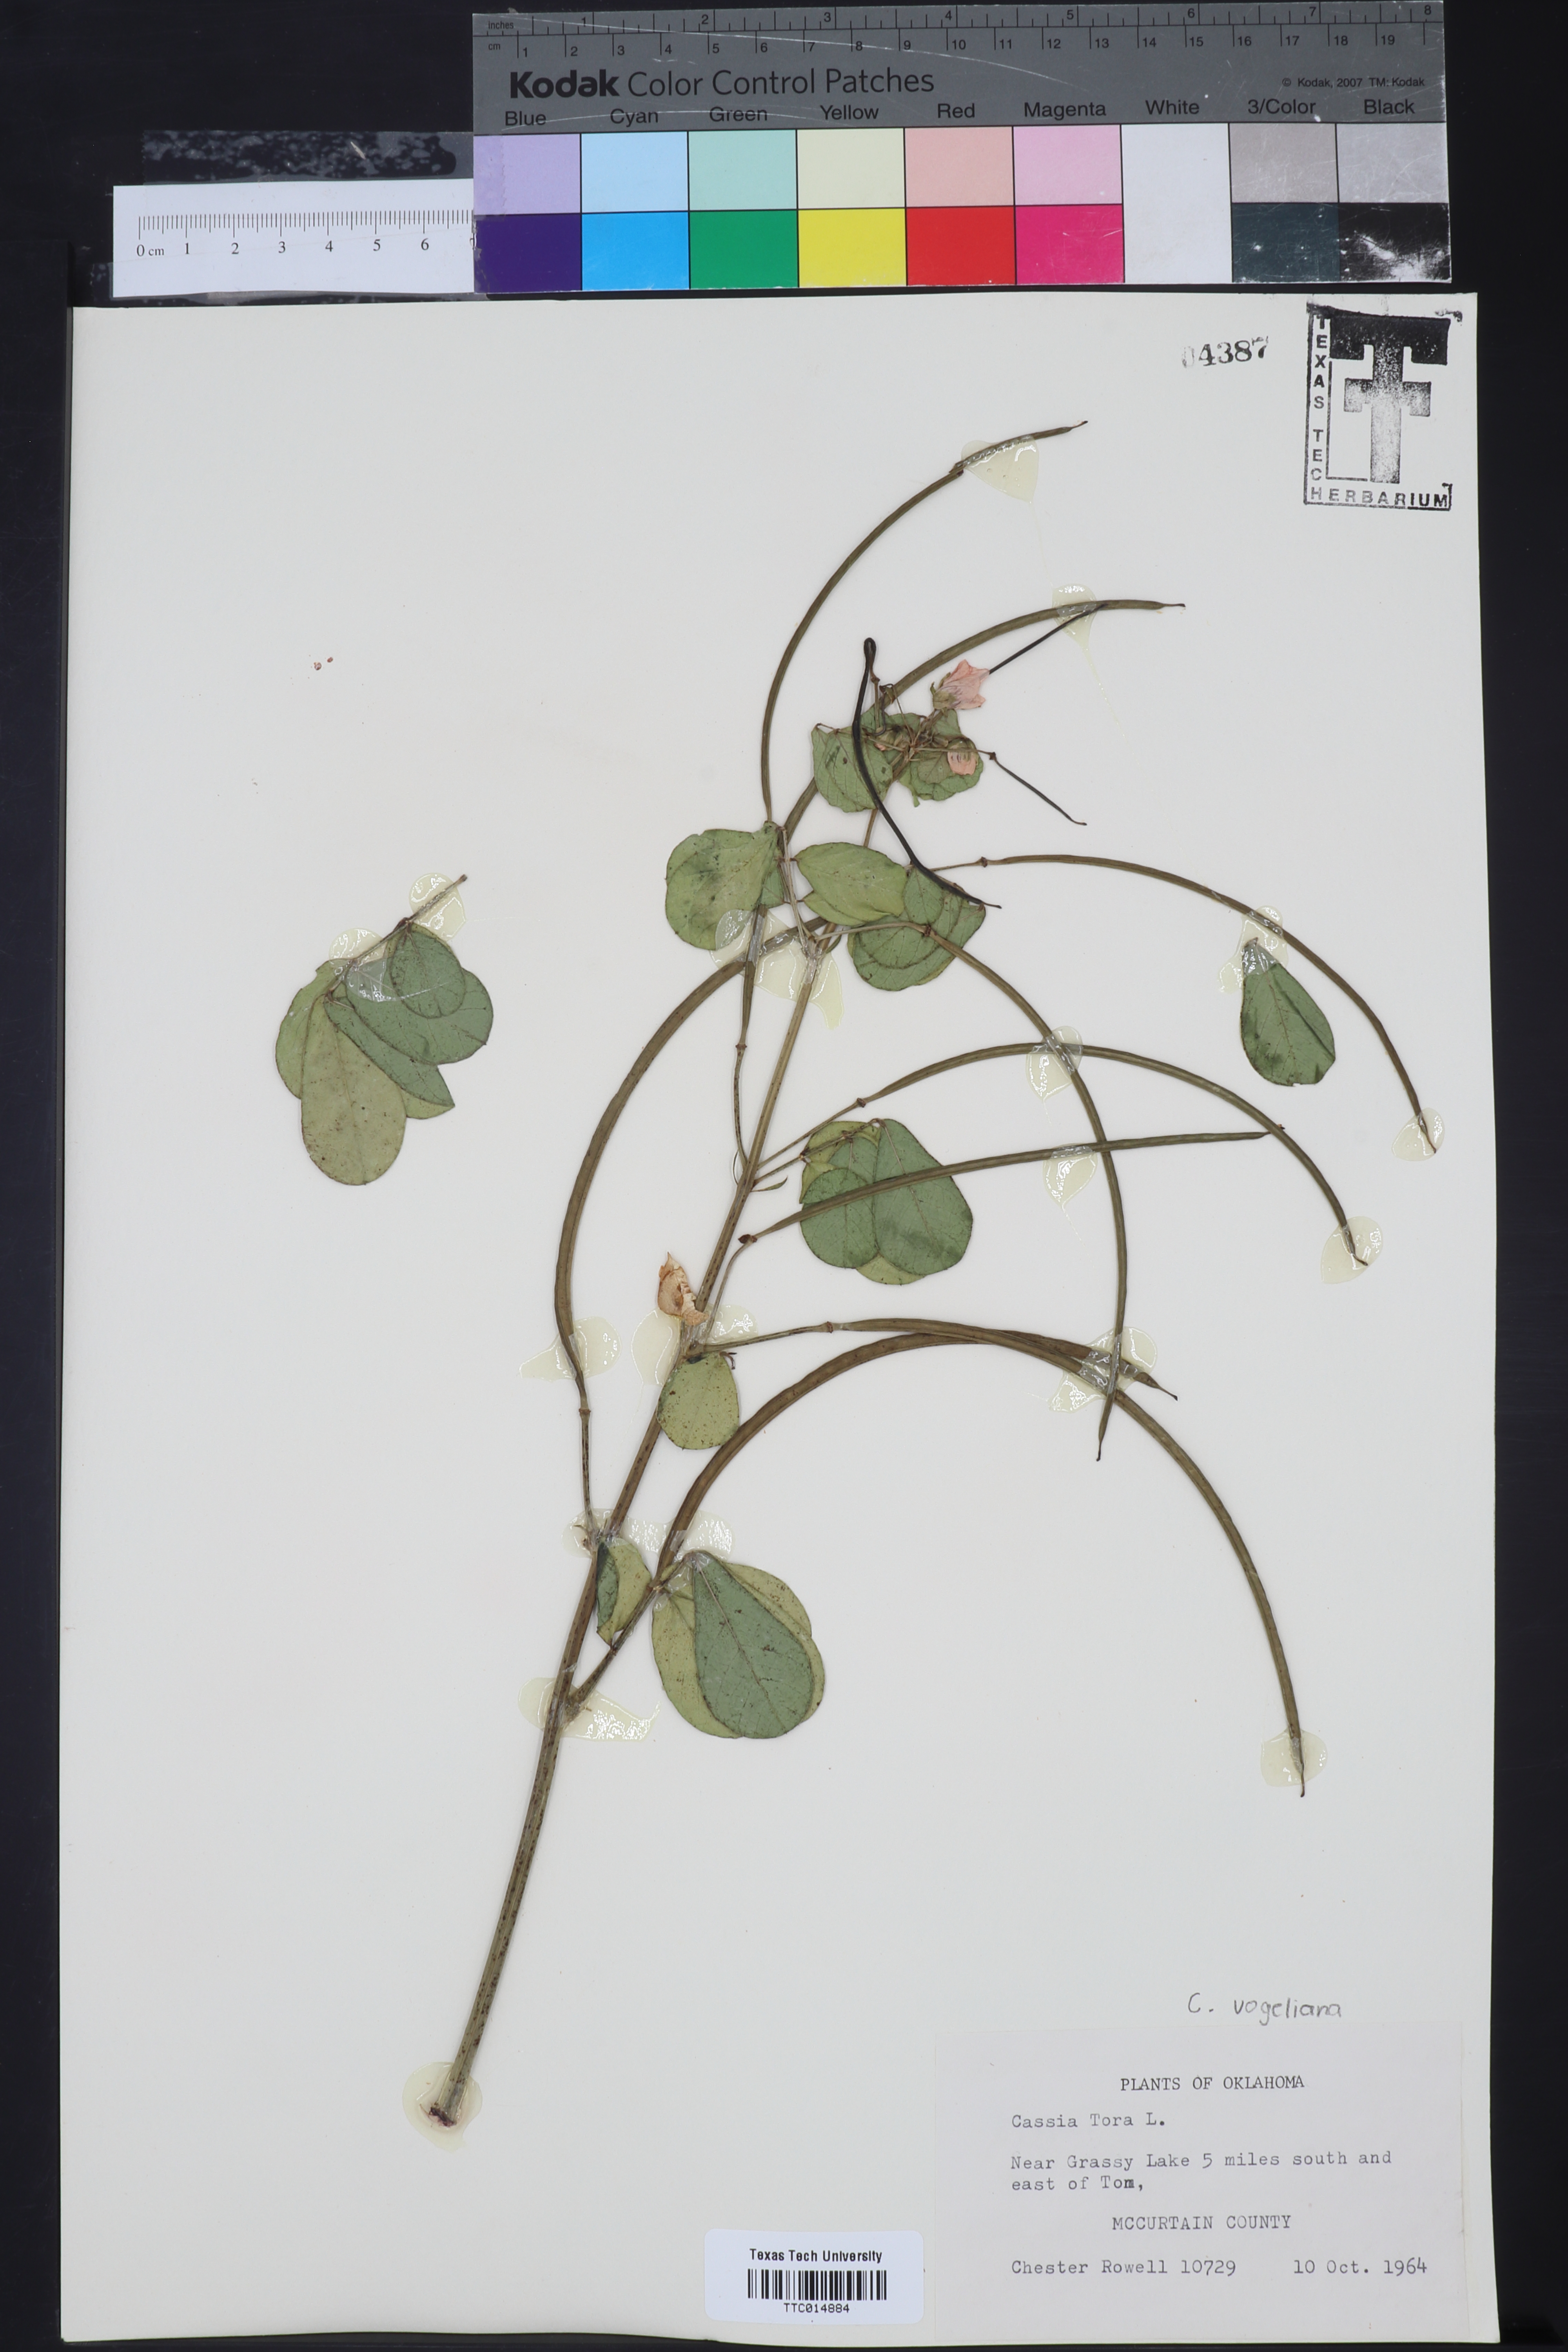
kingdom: Plantae
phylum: Tracheophyta
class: Magnoliopsida
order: Fabales
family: Fabaceae
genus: Senna
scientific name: Senna tora
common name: Sickle senna
